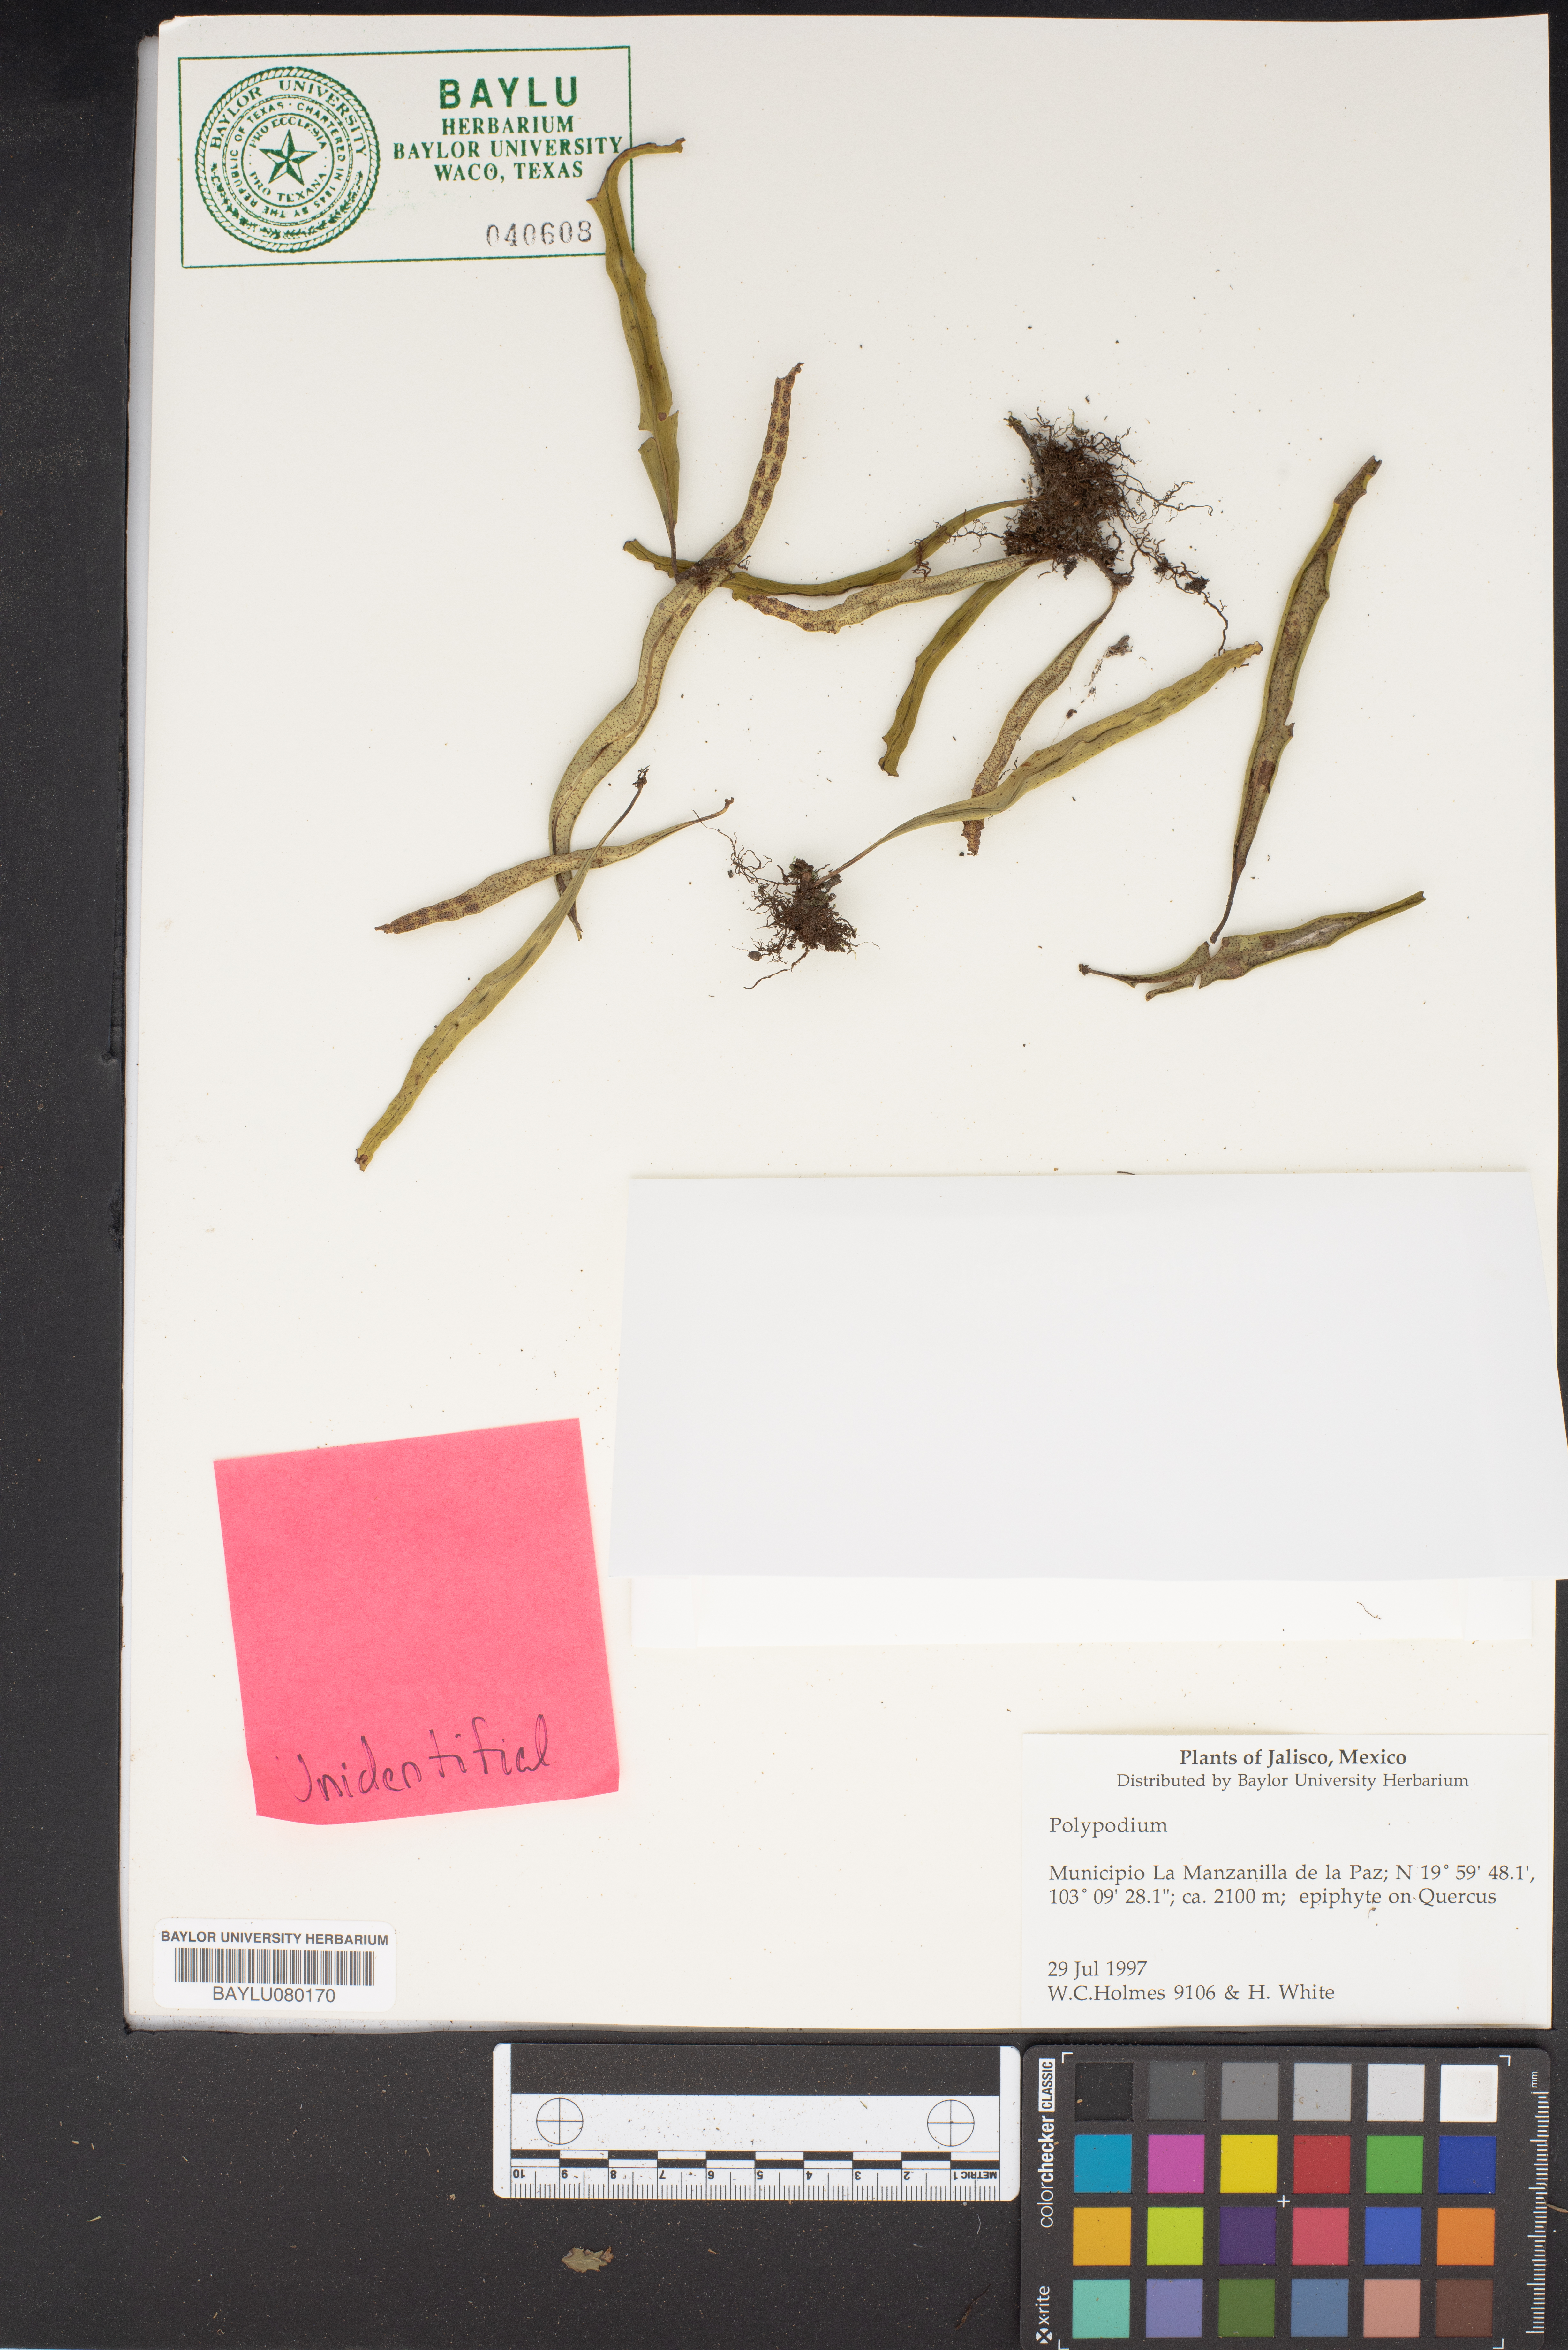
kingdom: Plantae
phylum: Tracheophyta
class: Polypodiopsida
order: Polypodiales
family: Polypodiaceae
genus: Polypodium
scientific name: Polypodium
